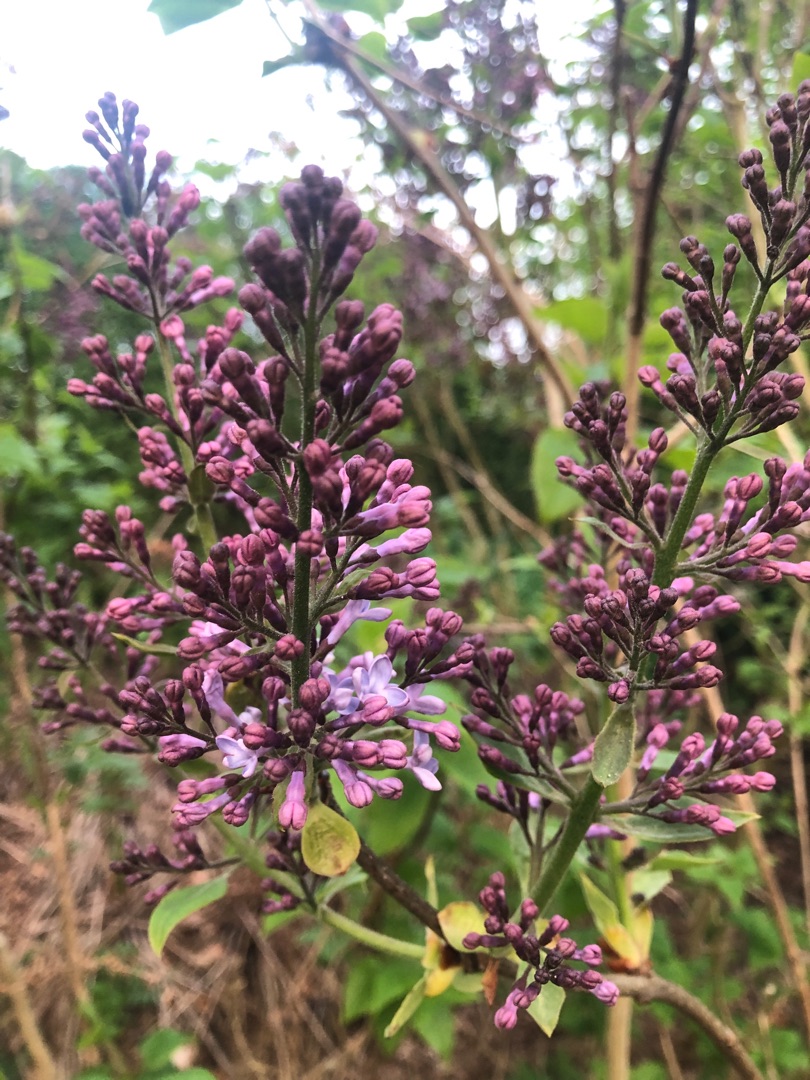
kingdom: Plantae
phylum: Tracheophyta
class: Magnoliopsida
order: Lamiales
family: Oleaceae
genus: Syringa
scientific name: Syringa vulgaris
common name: Syren
